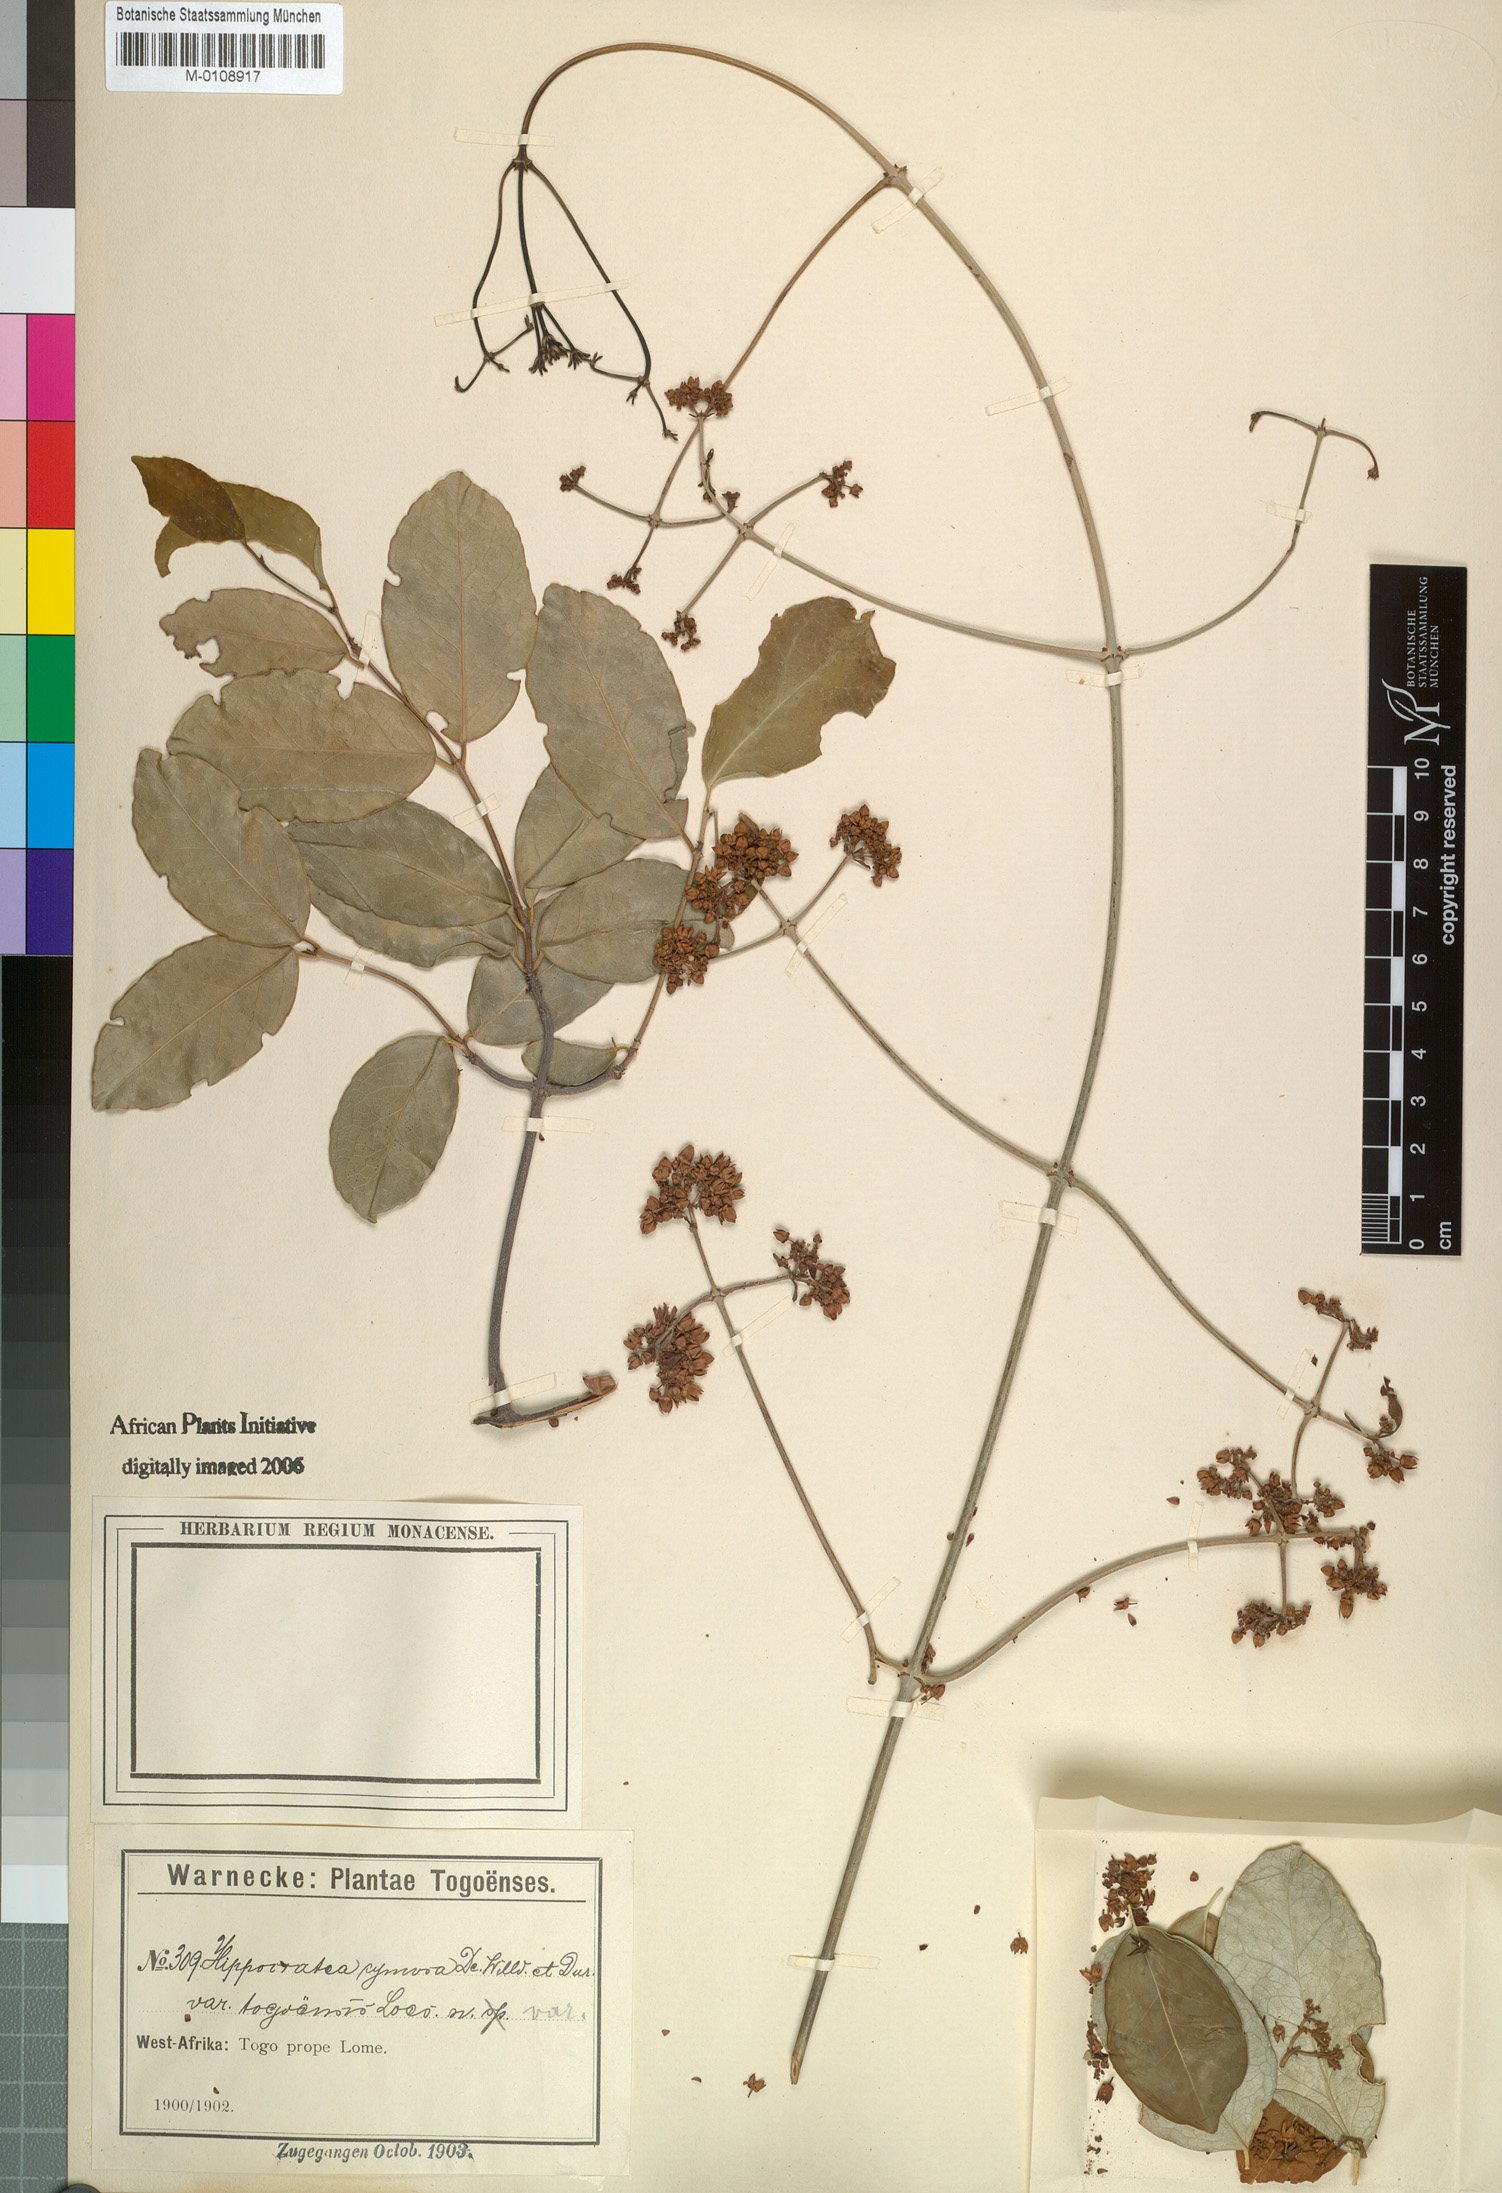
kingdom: Plantae
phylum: Tracheophyta
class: Magnoliopsida
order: Celastrales
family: Celastraceae
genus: Loeseneriella
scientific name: Loeseneriella africana
